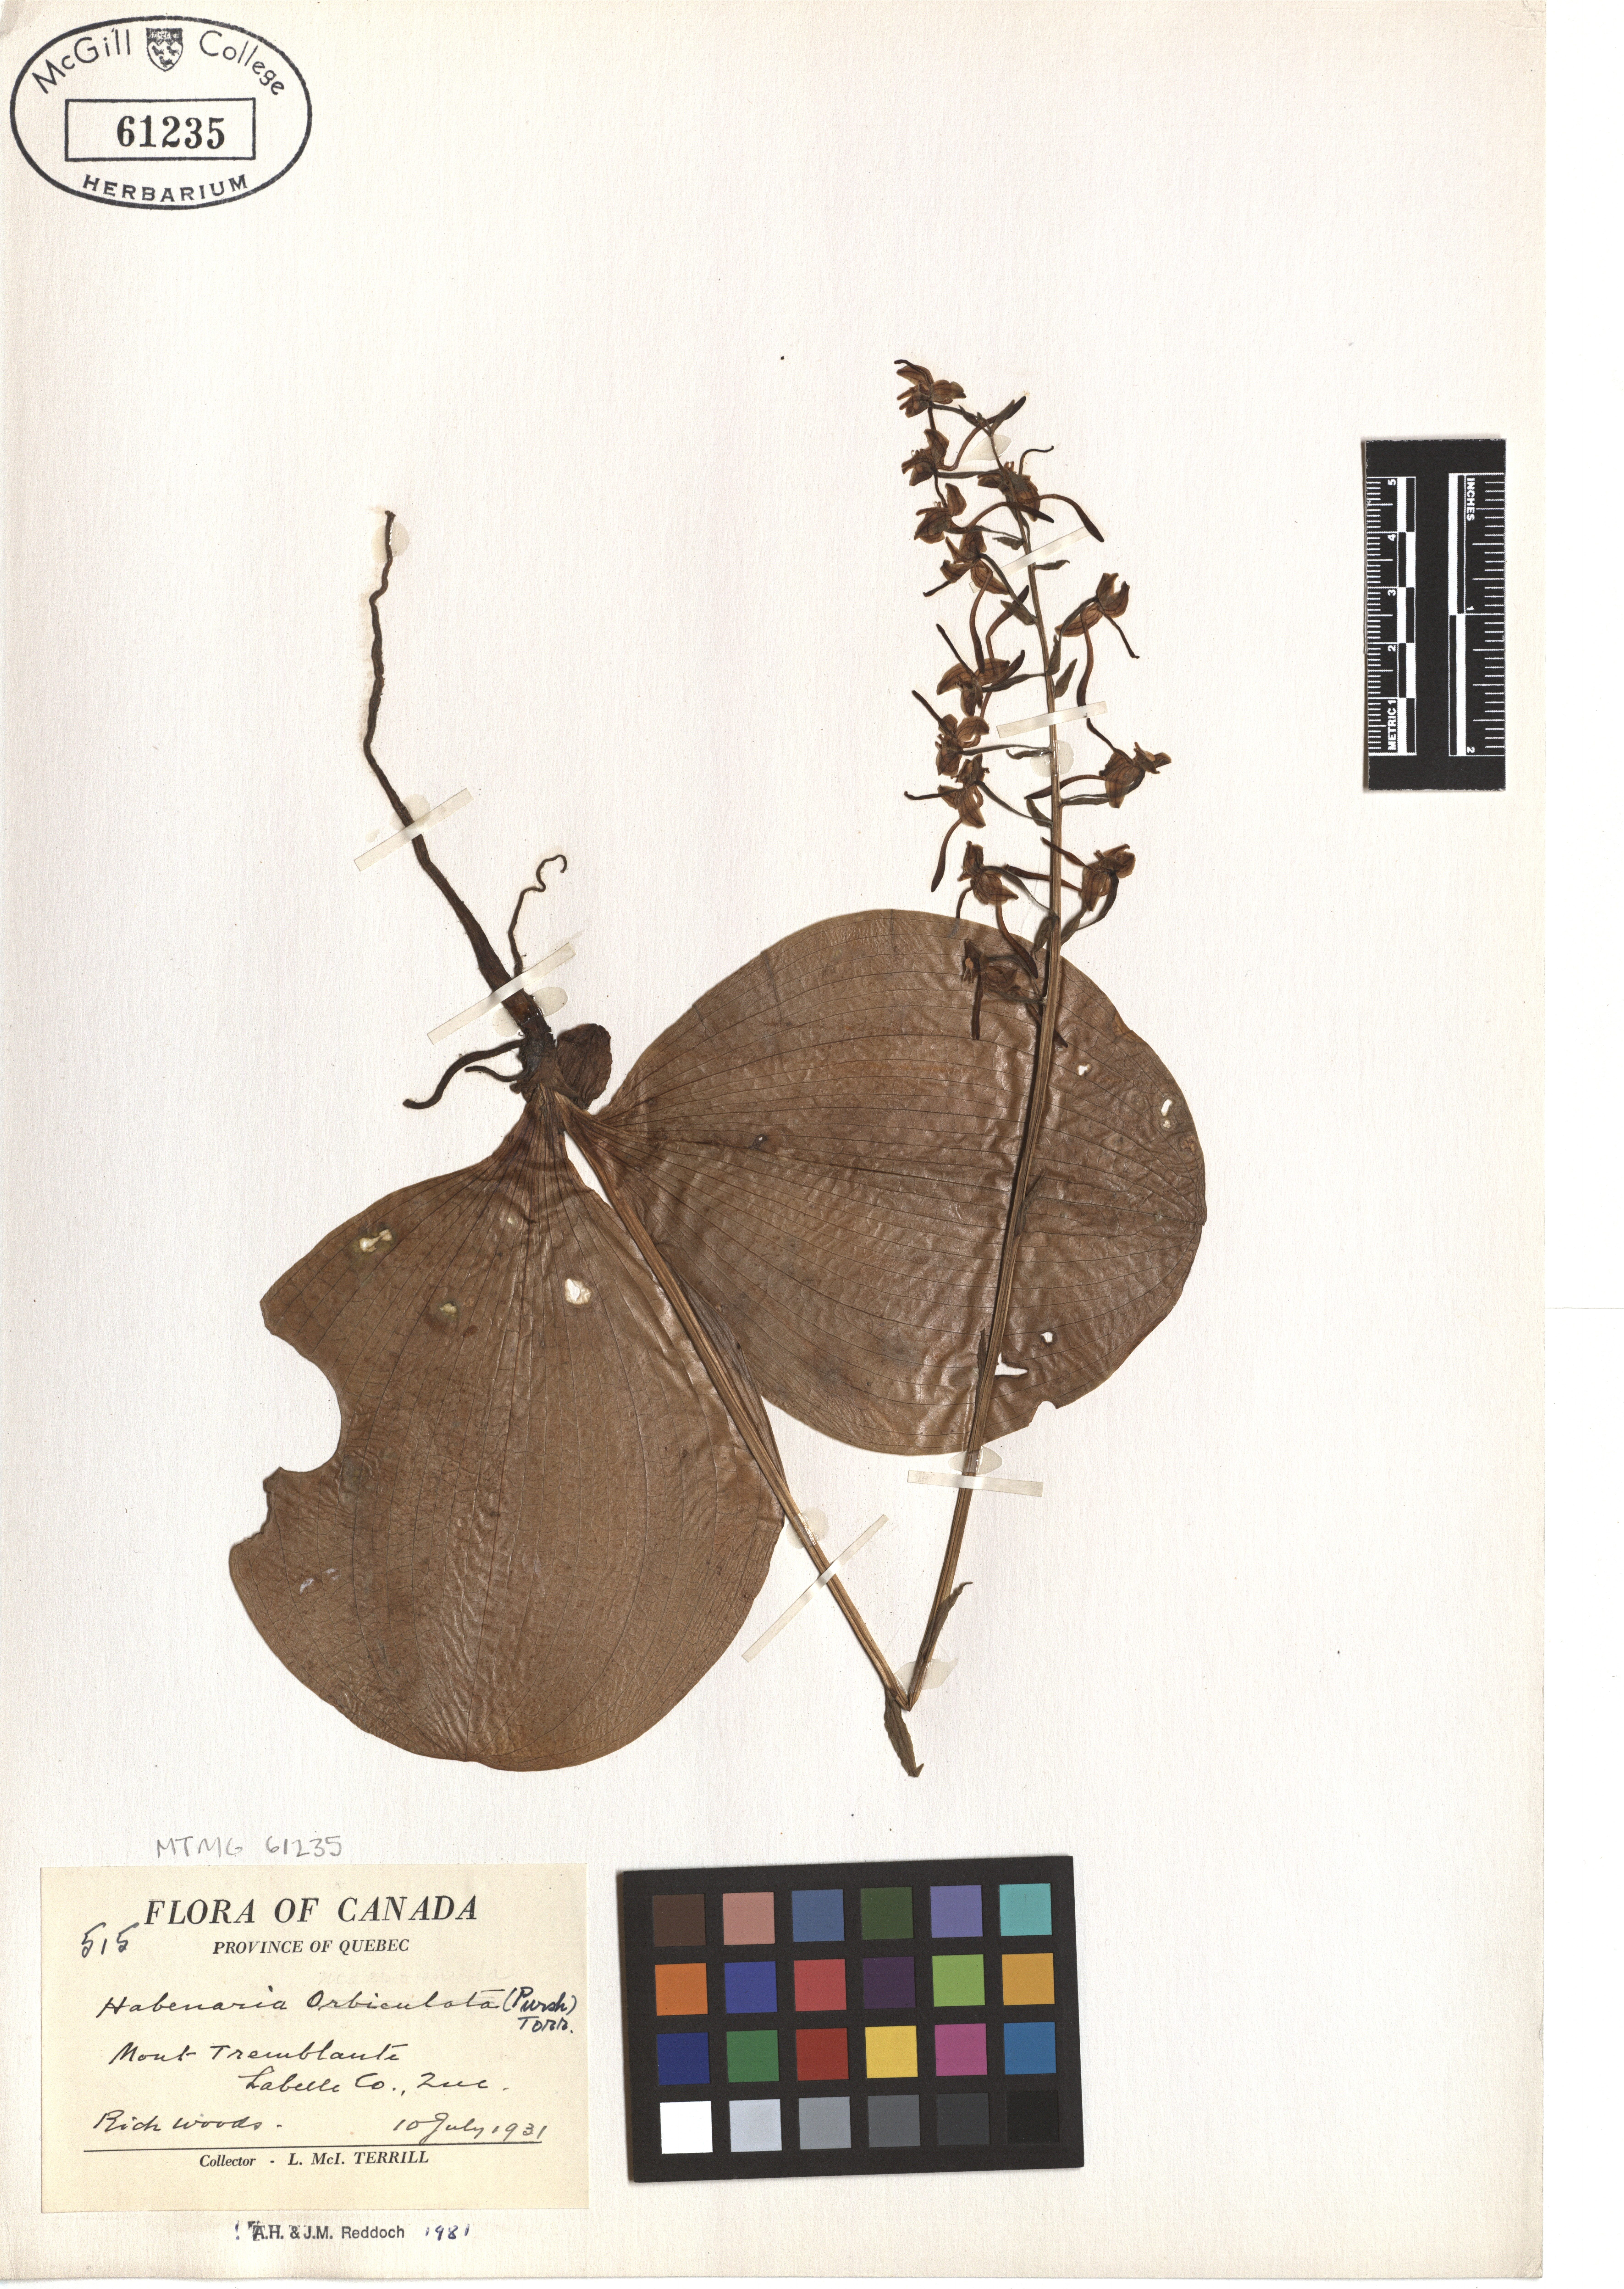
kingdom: Plantae
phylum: Tracheophyta
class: Liliopsida
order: Asparagales
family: Orchidaceae
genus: Platanthera
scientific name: Platanthera orbiculata
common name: Large round-leaved orchid
